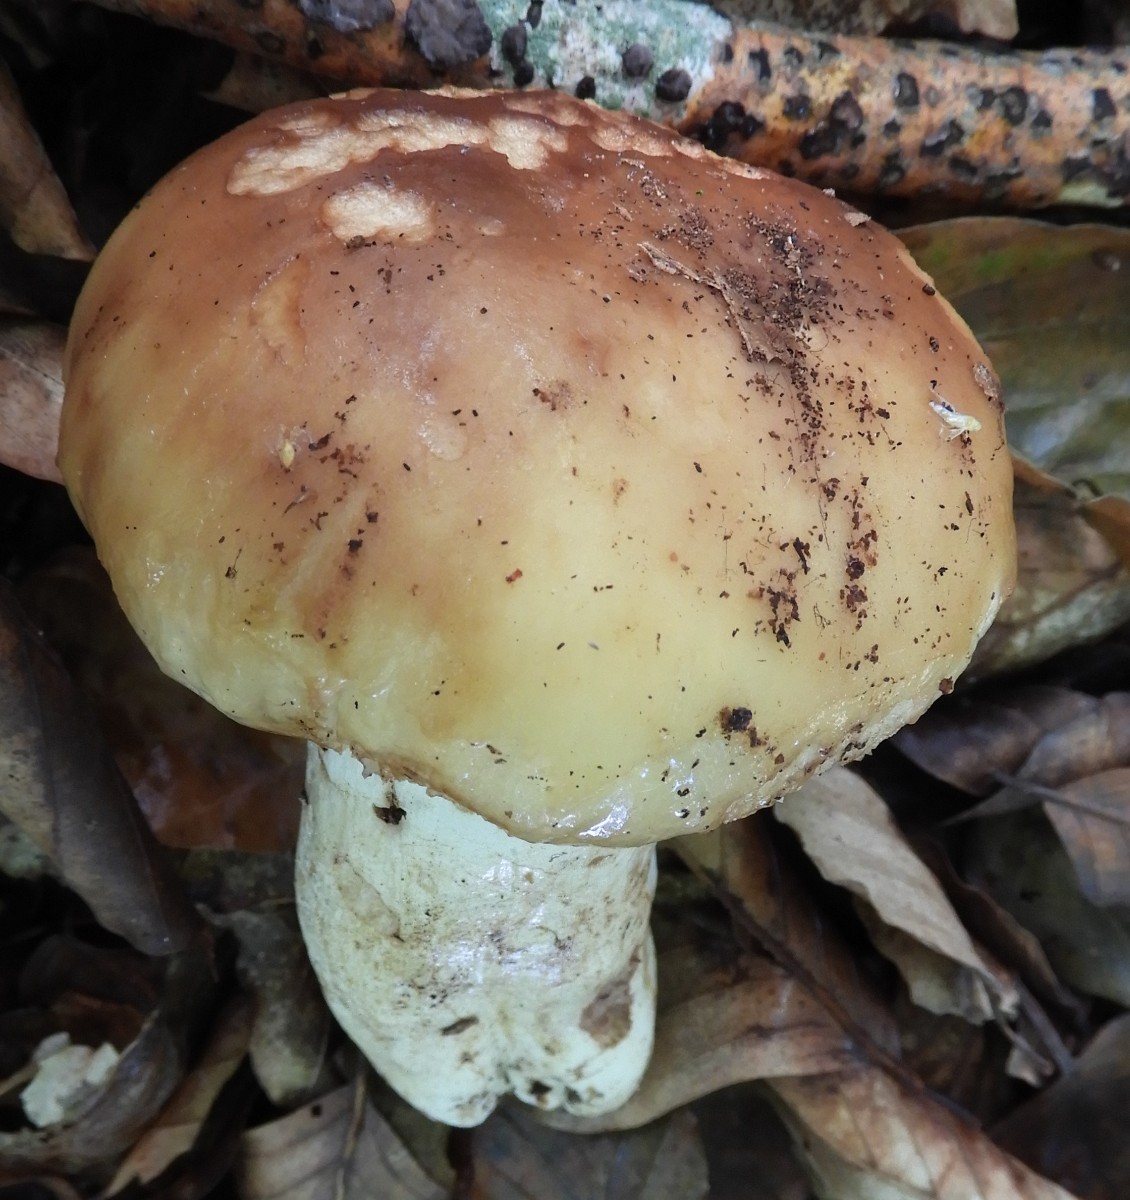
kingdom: Fungi
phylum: Basidiomycota
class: Agaricomycetes
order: Russulales
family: Russulaceae
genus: Russula
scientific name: Russula foetens
